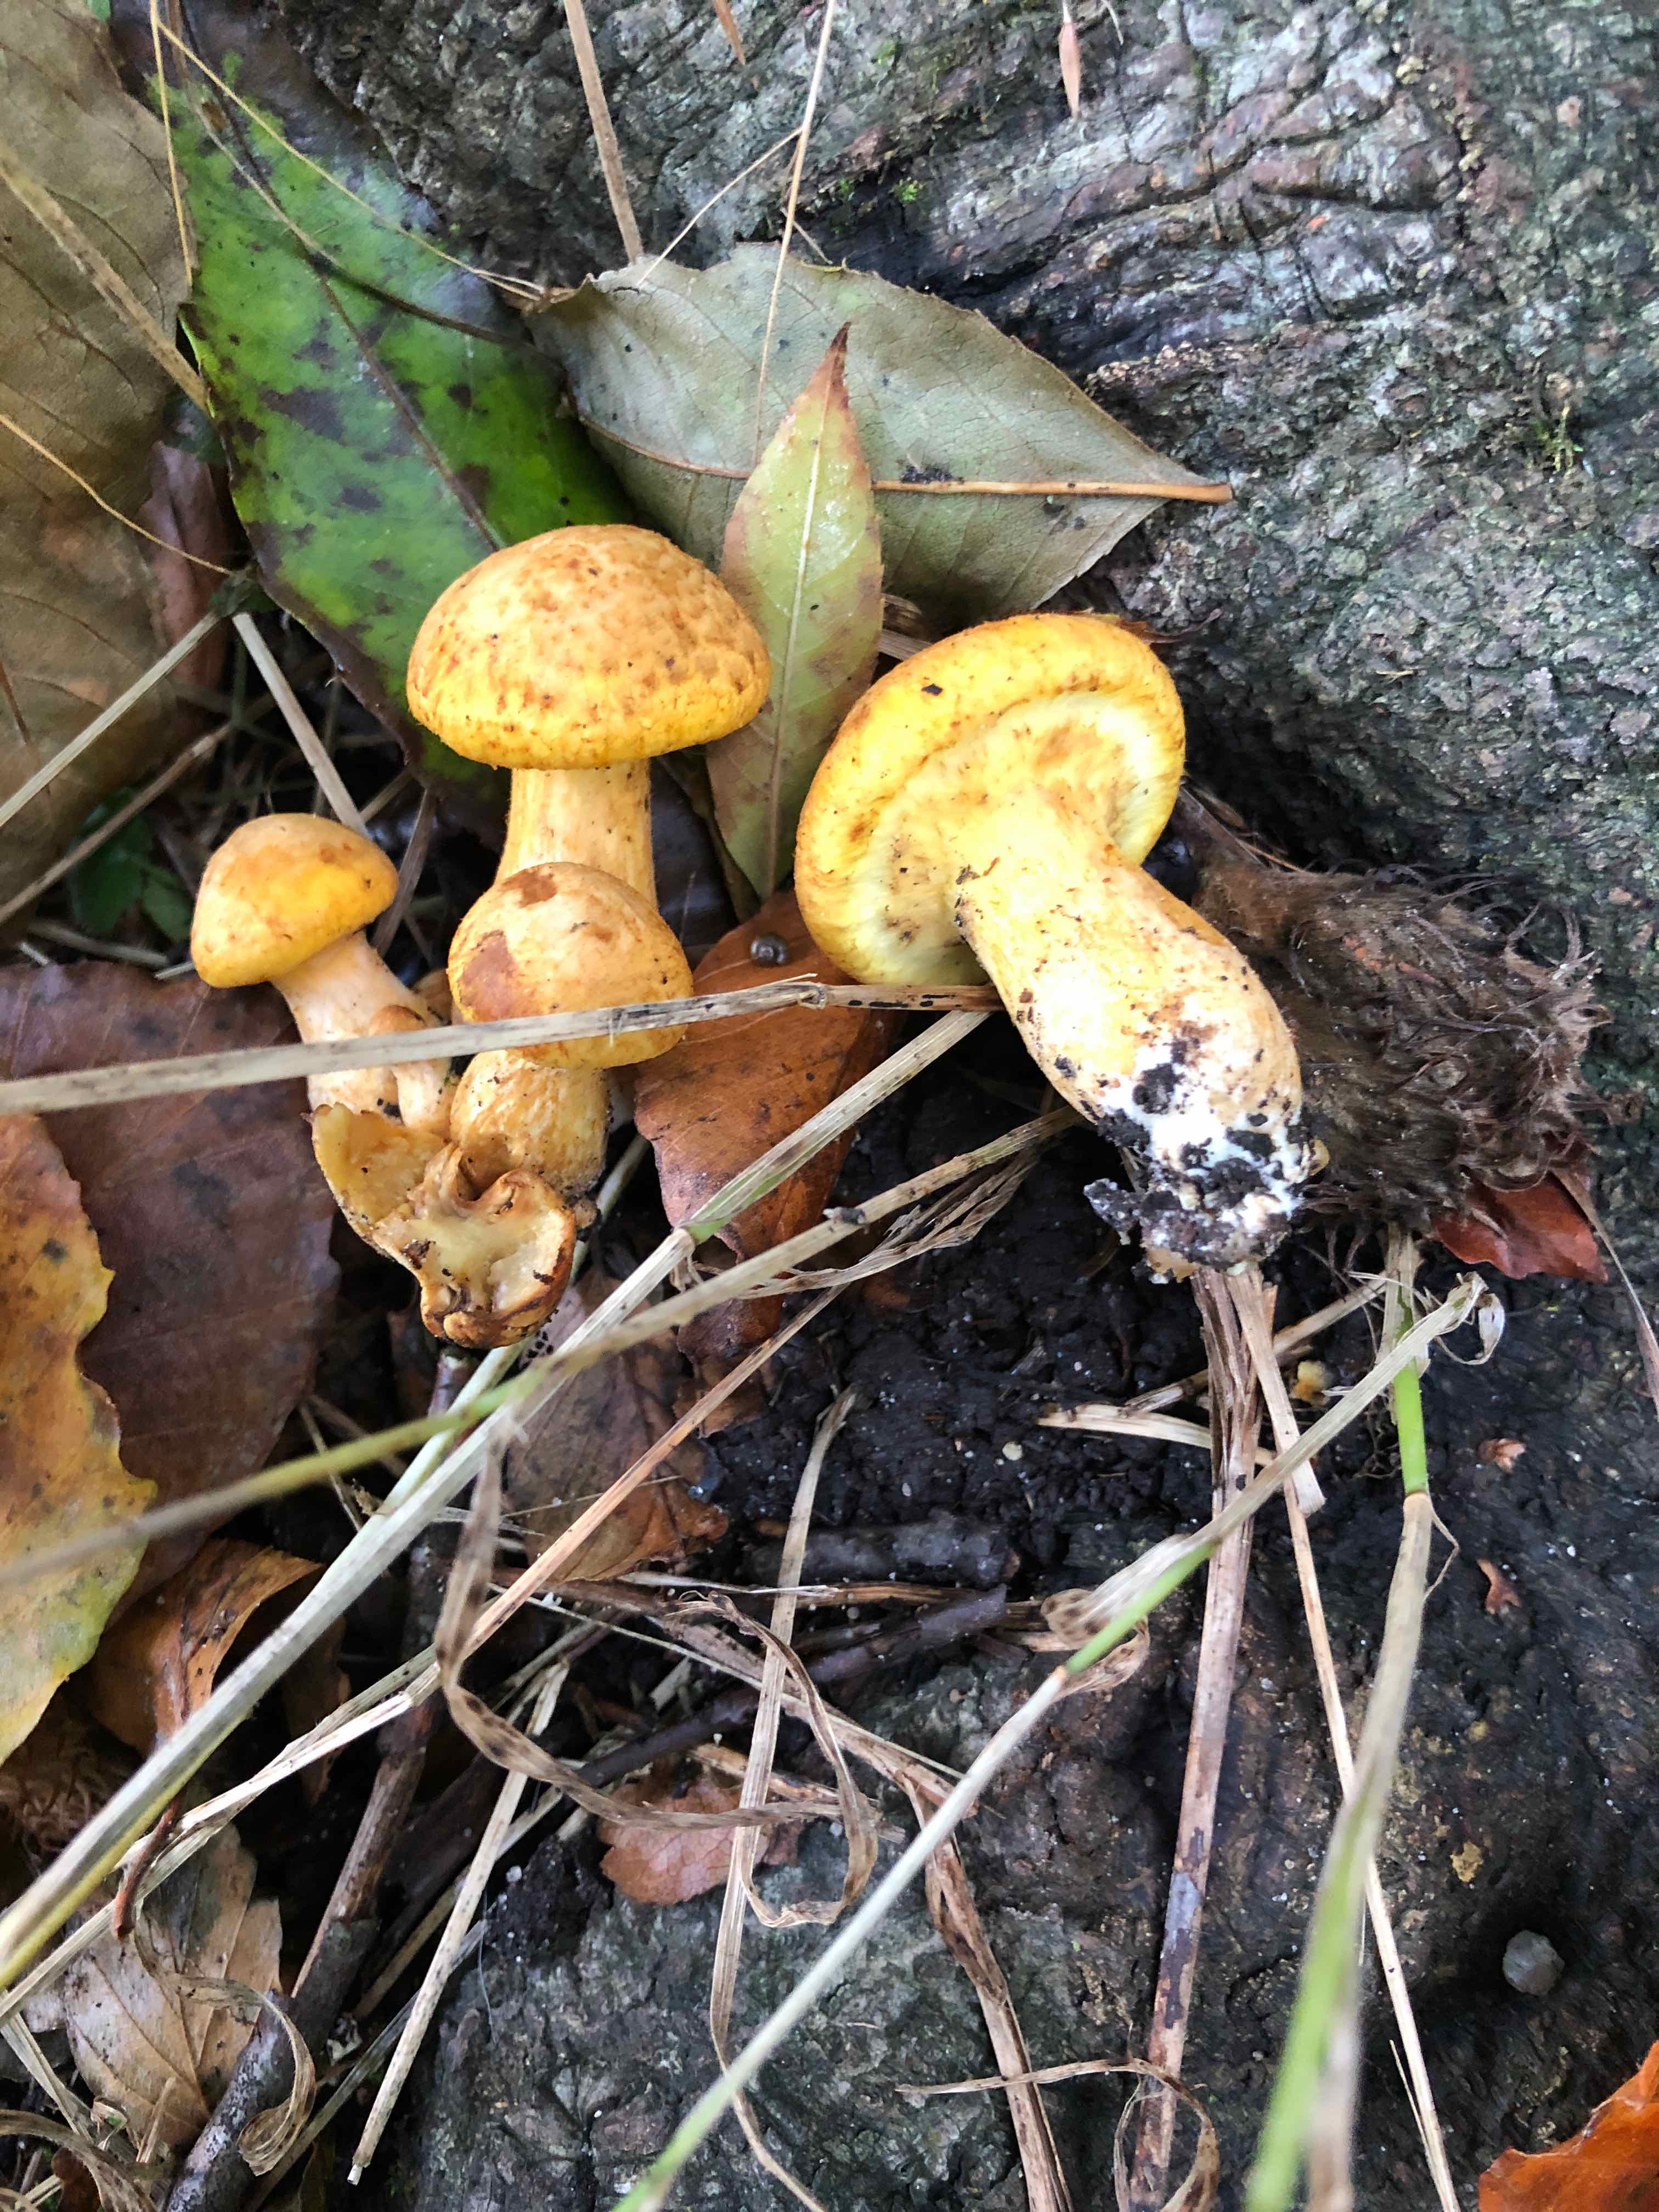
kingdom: Fungi
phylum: Basidiomycota
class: Agaricomycetes
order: Agaricales
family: Hymenogastraceae
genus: Gymnopilus
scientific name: Gymnopilus spectabilis
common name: fibret flammehat
